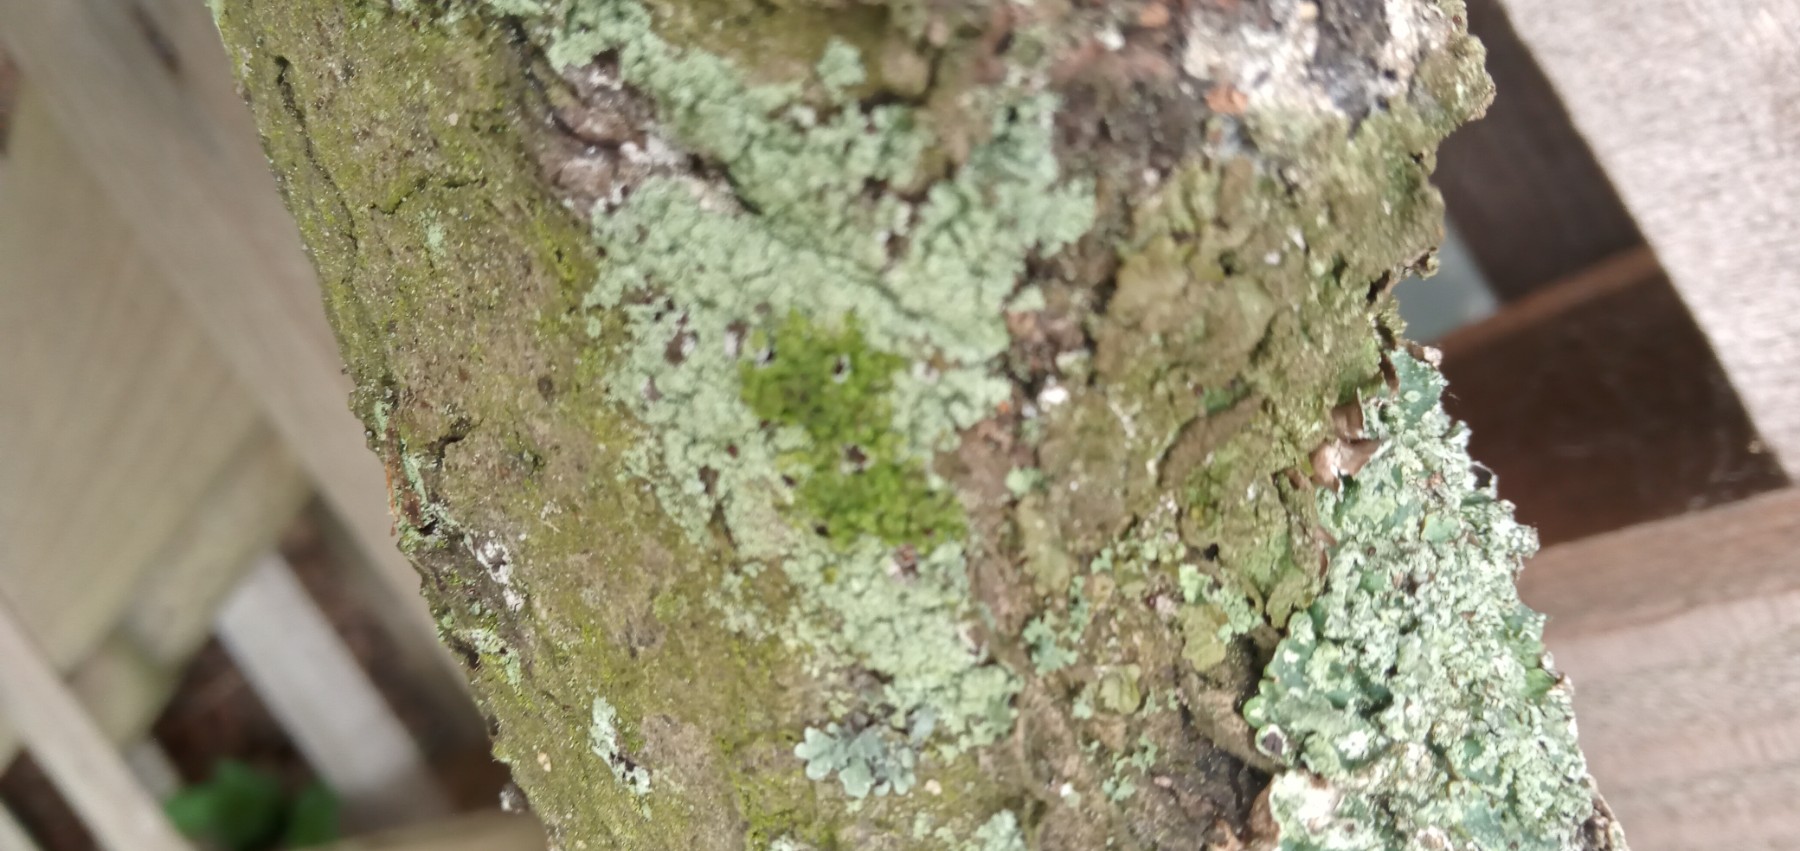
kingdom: Fungi
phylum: Ascomycota
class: Lecanoromycetes
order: Lecanorales
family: Stereocaulaceae
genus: Lepraria
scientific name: Lepraria
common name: støvlav
